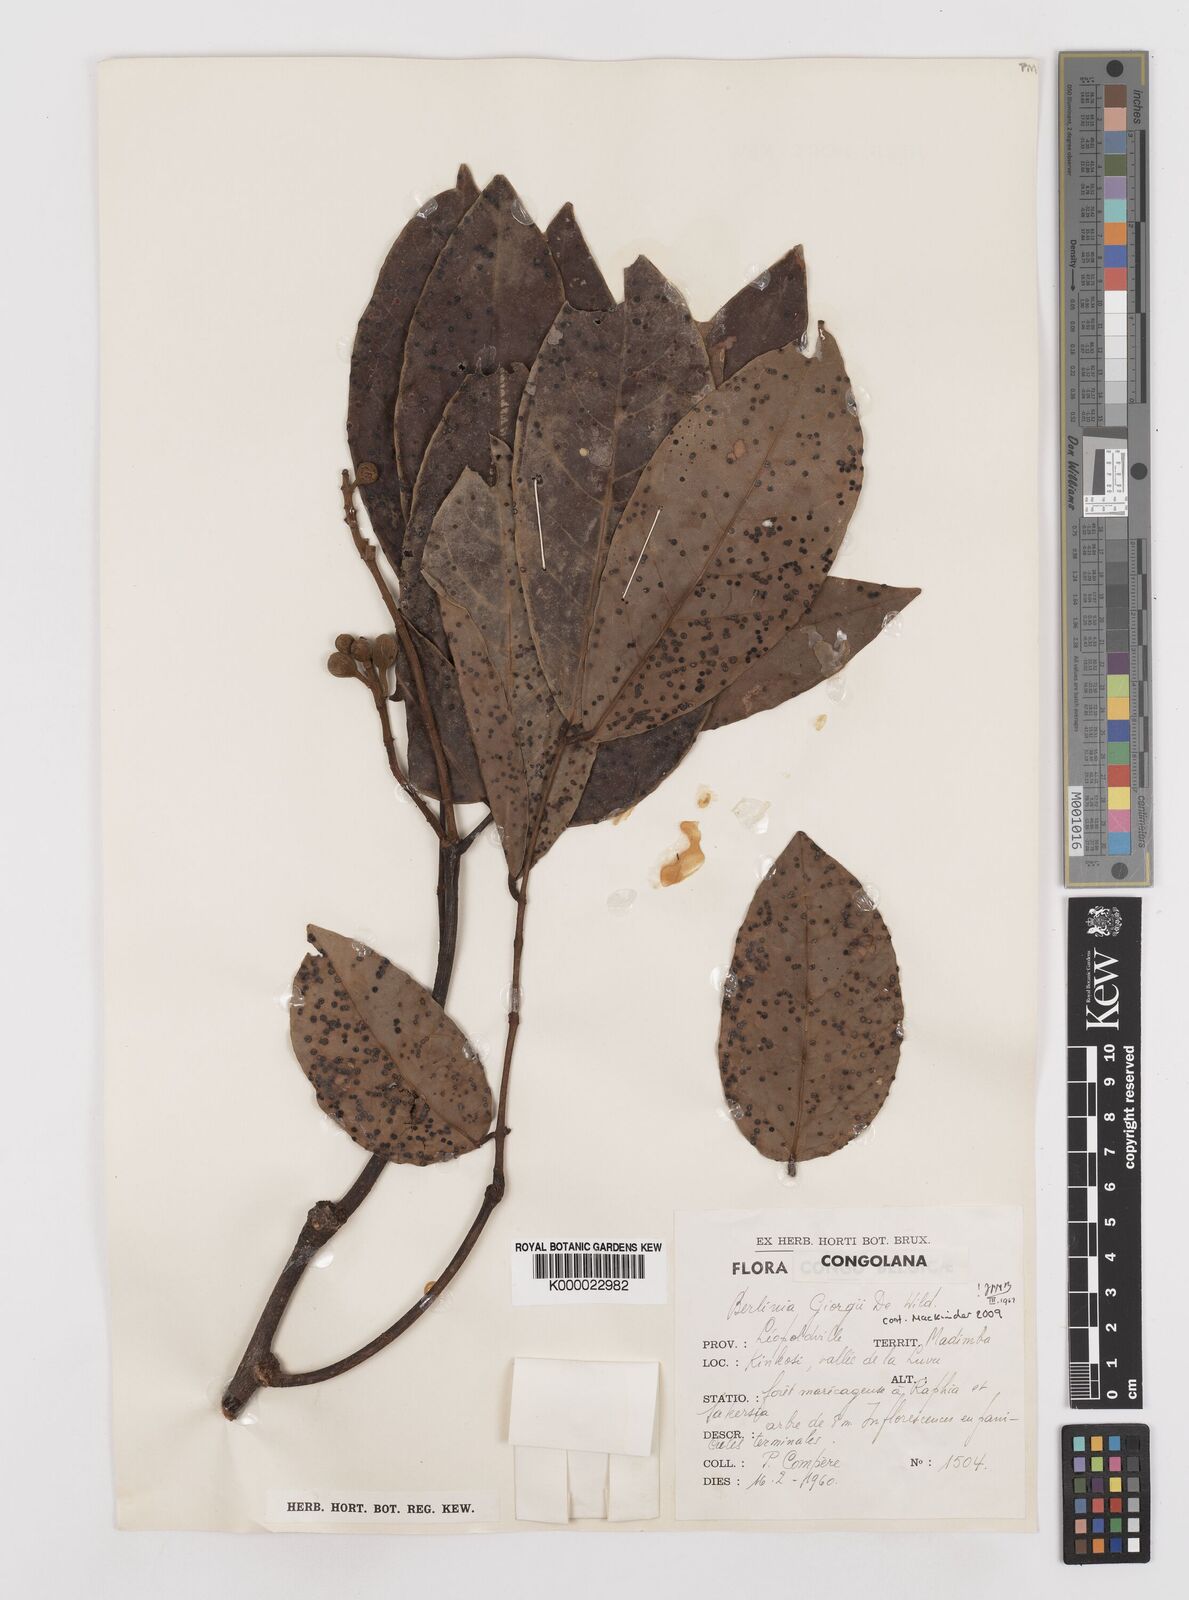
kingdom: Plantae
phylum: Tracheophyta
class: Magnoliopsida
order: Fabales
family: Fabaceae
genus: Berlinia
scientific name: Berlinia giorgii
